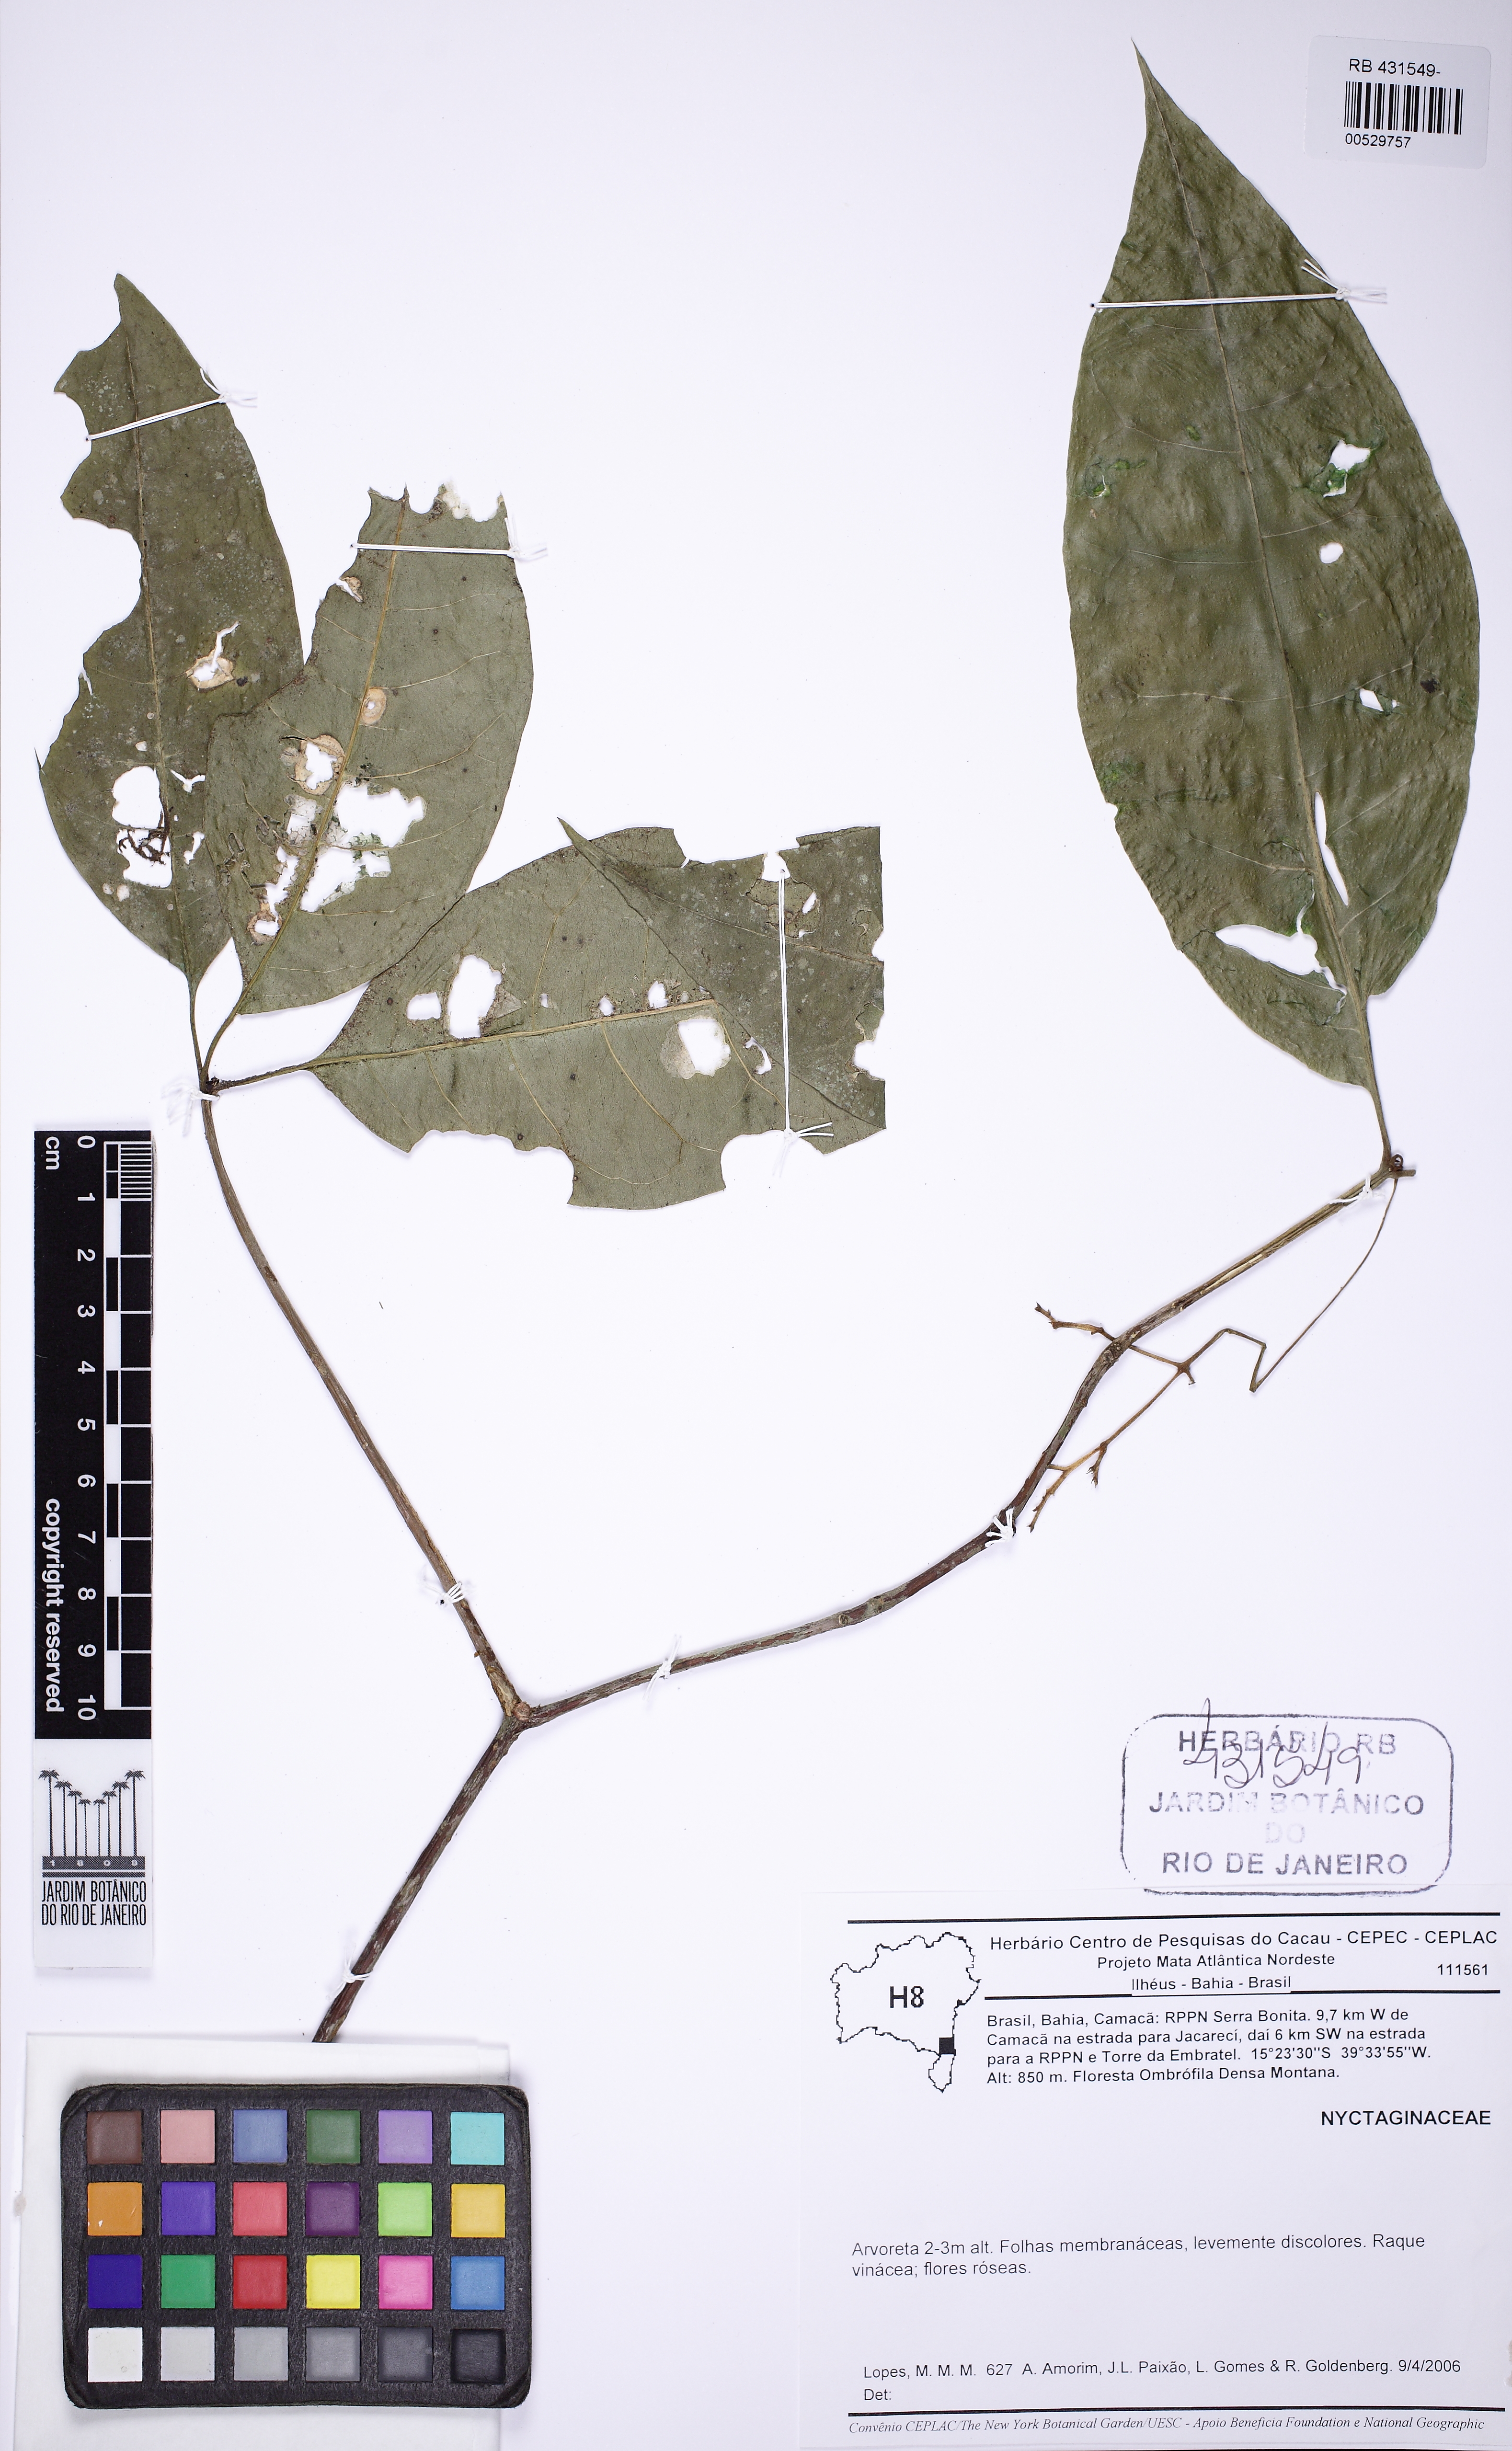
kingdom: Plantae
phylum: Tracheophyta
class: Magnoliopsida
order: Caryophyllales
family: Nyctaginaceae
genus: Guapira
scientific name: Guapira opposita
